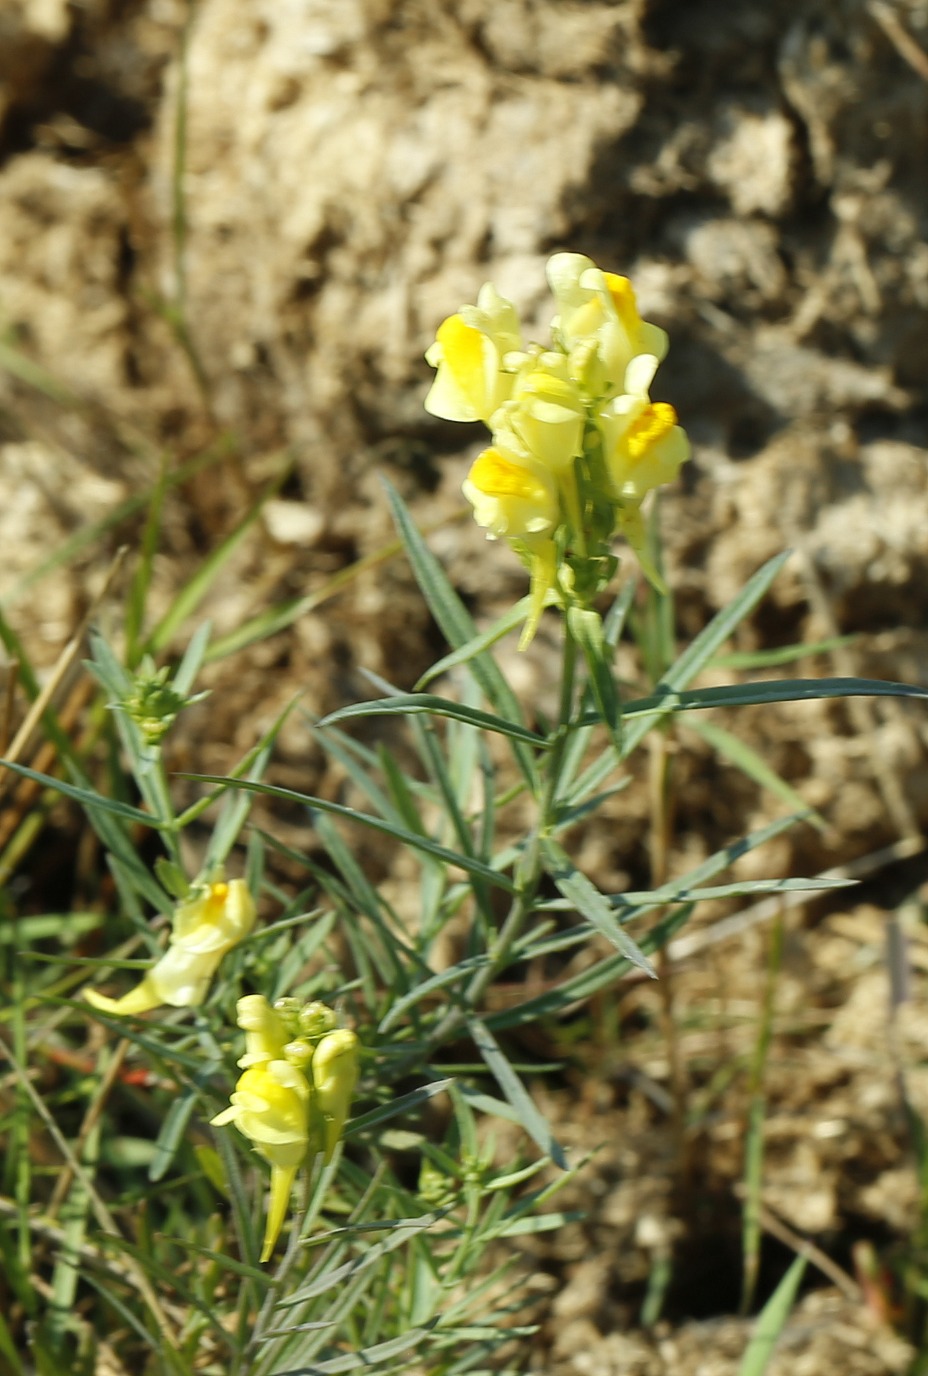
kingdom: Plantae
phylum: Tracheophyta
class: Magnoliopsida
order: Lamiales
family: Plantaginaceae
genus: Linaria
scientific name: Linaria vulgaris
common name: Almindelig torskemund
